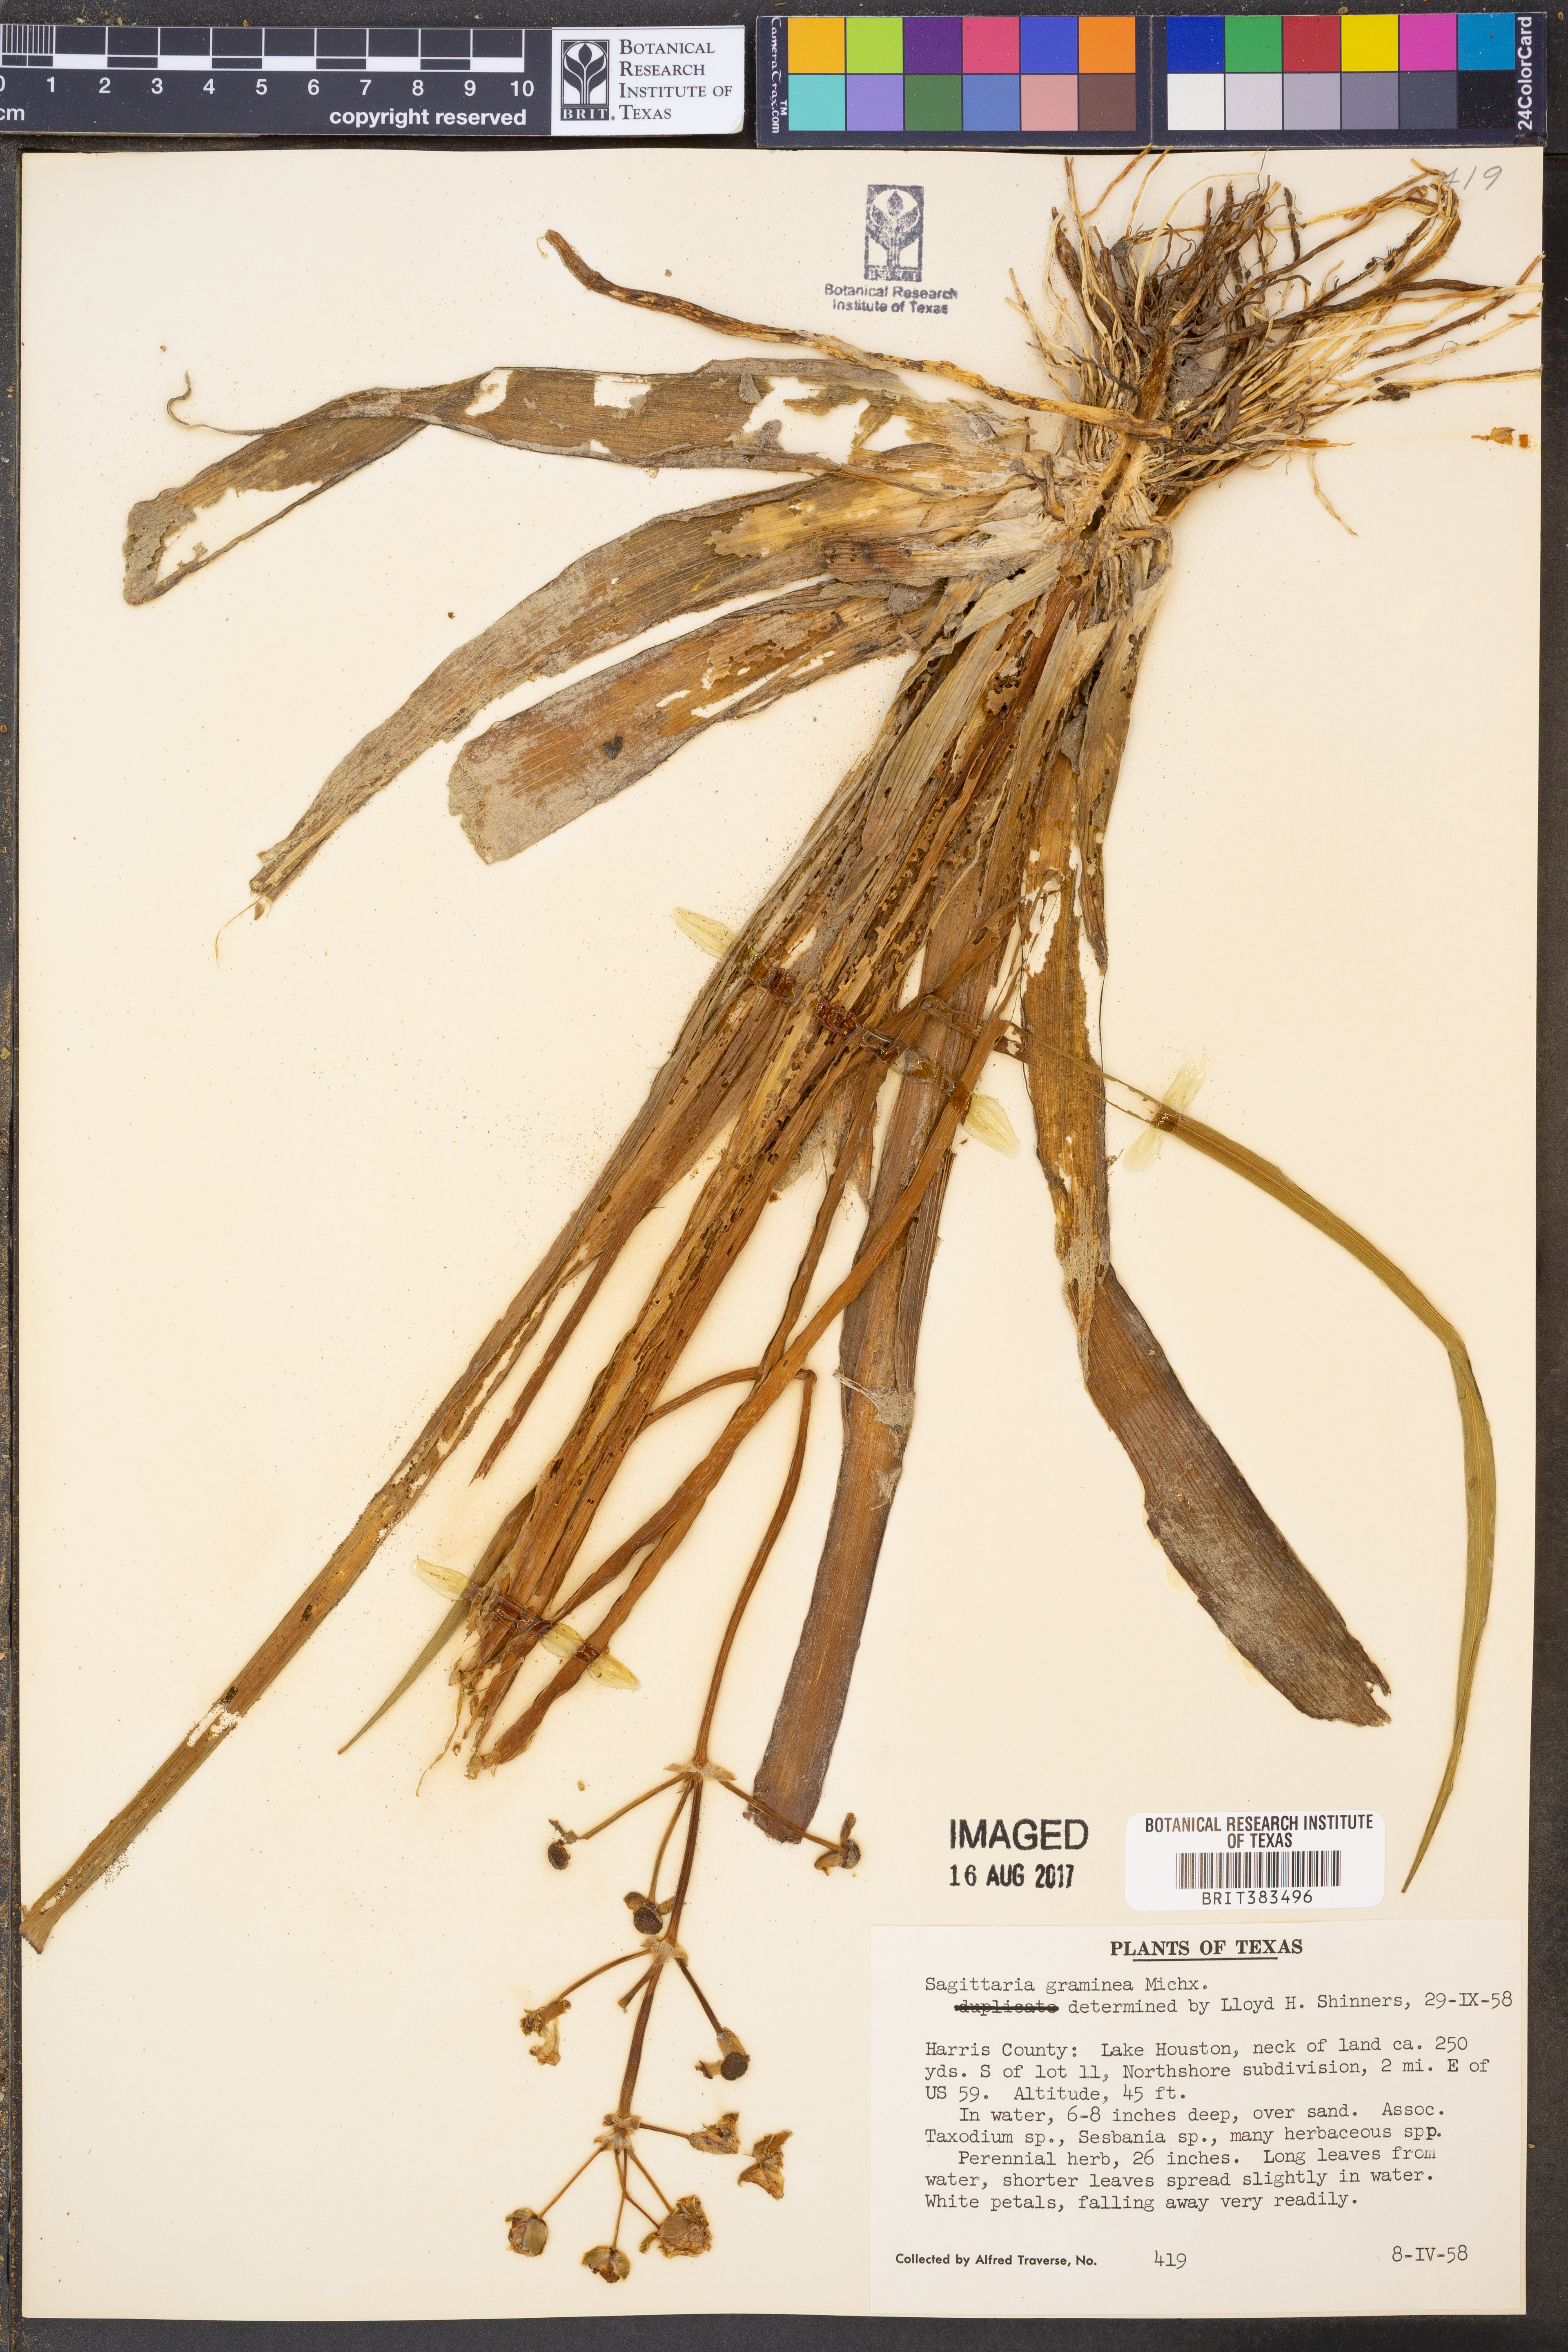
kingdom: Plantae
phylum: Tracheophyta
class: Liliopsida
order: Alismatales
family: Alismataceae
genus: Sagittaria
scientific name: Sagittaria graminea
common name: Grass-leaved arrowhead
